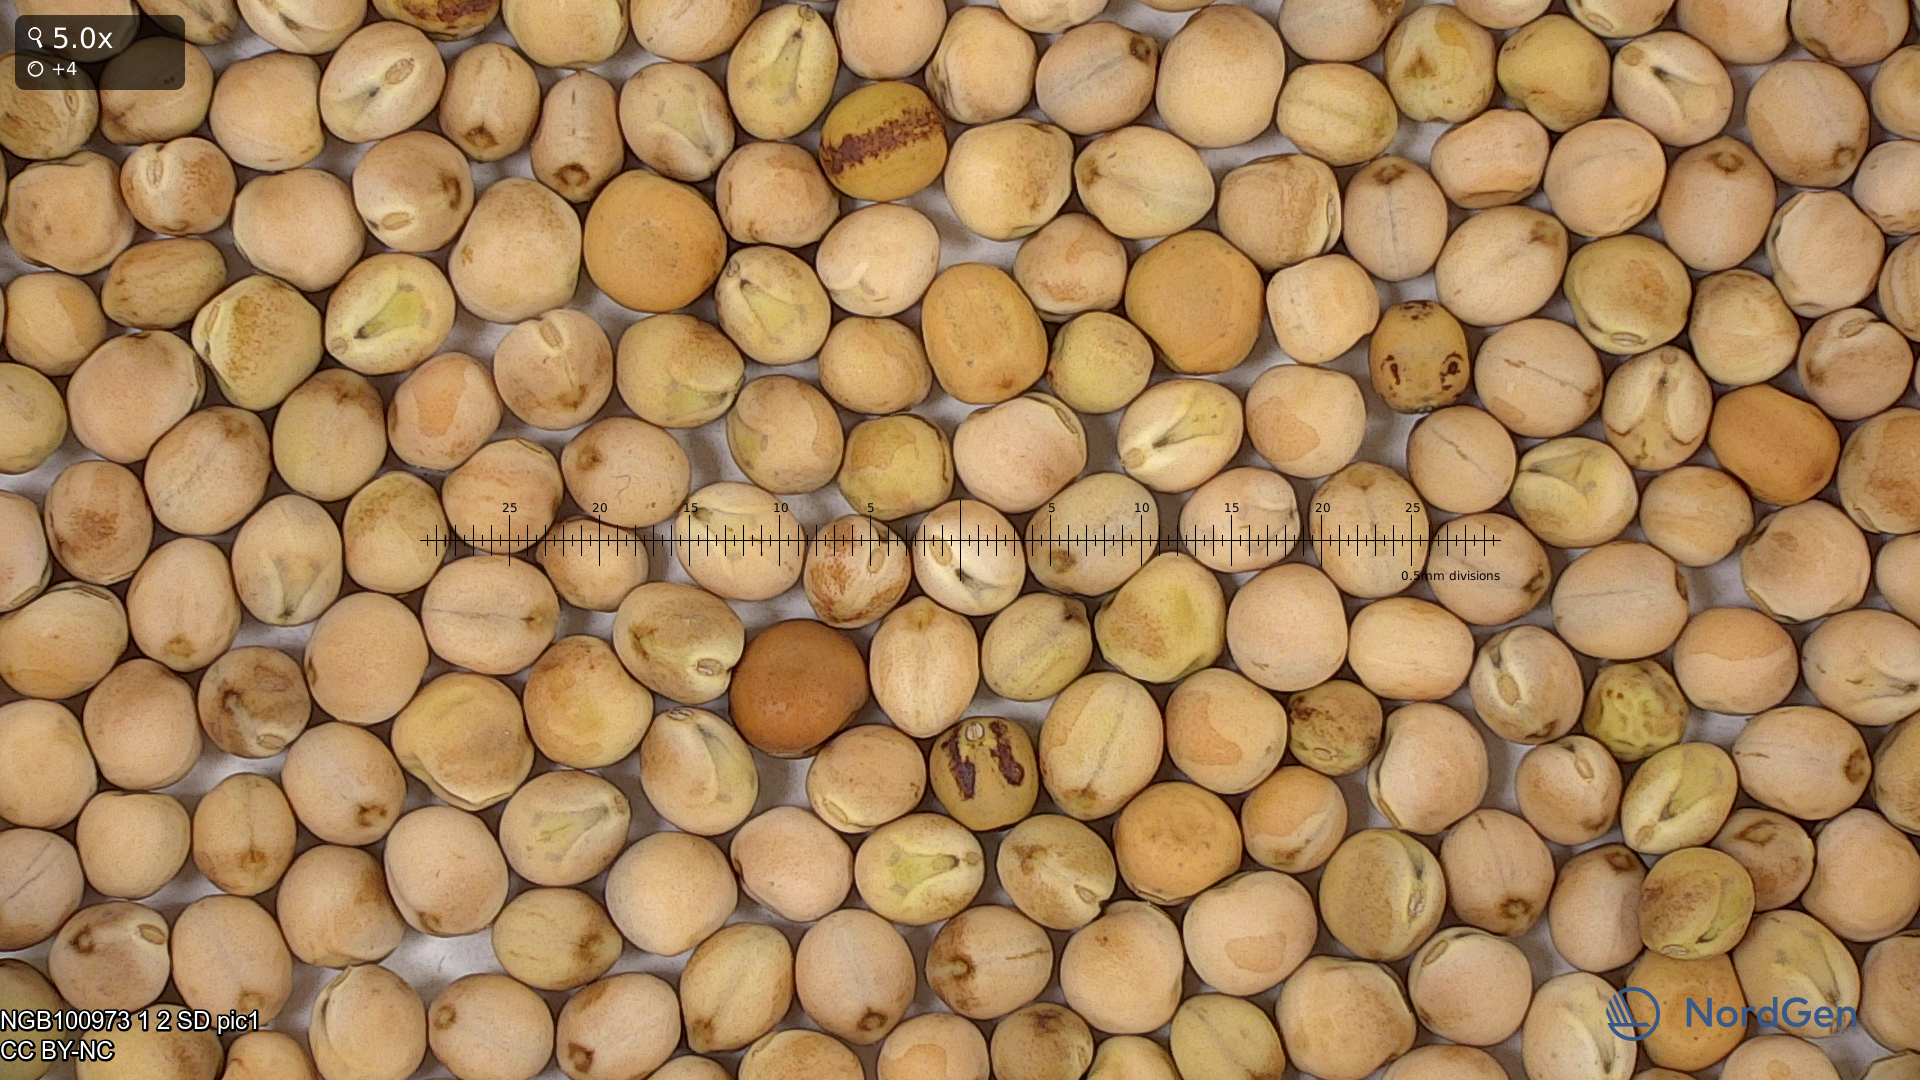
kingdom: Plantae
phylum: Tracheophyta
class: Magnoliopsida
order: Fabales
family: Fabaceae
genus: Lathyrus
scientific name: Lathyrus oleraceus
